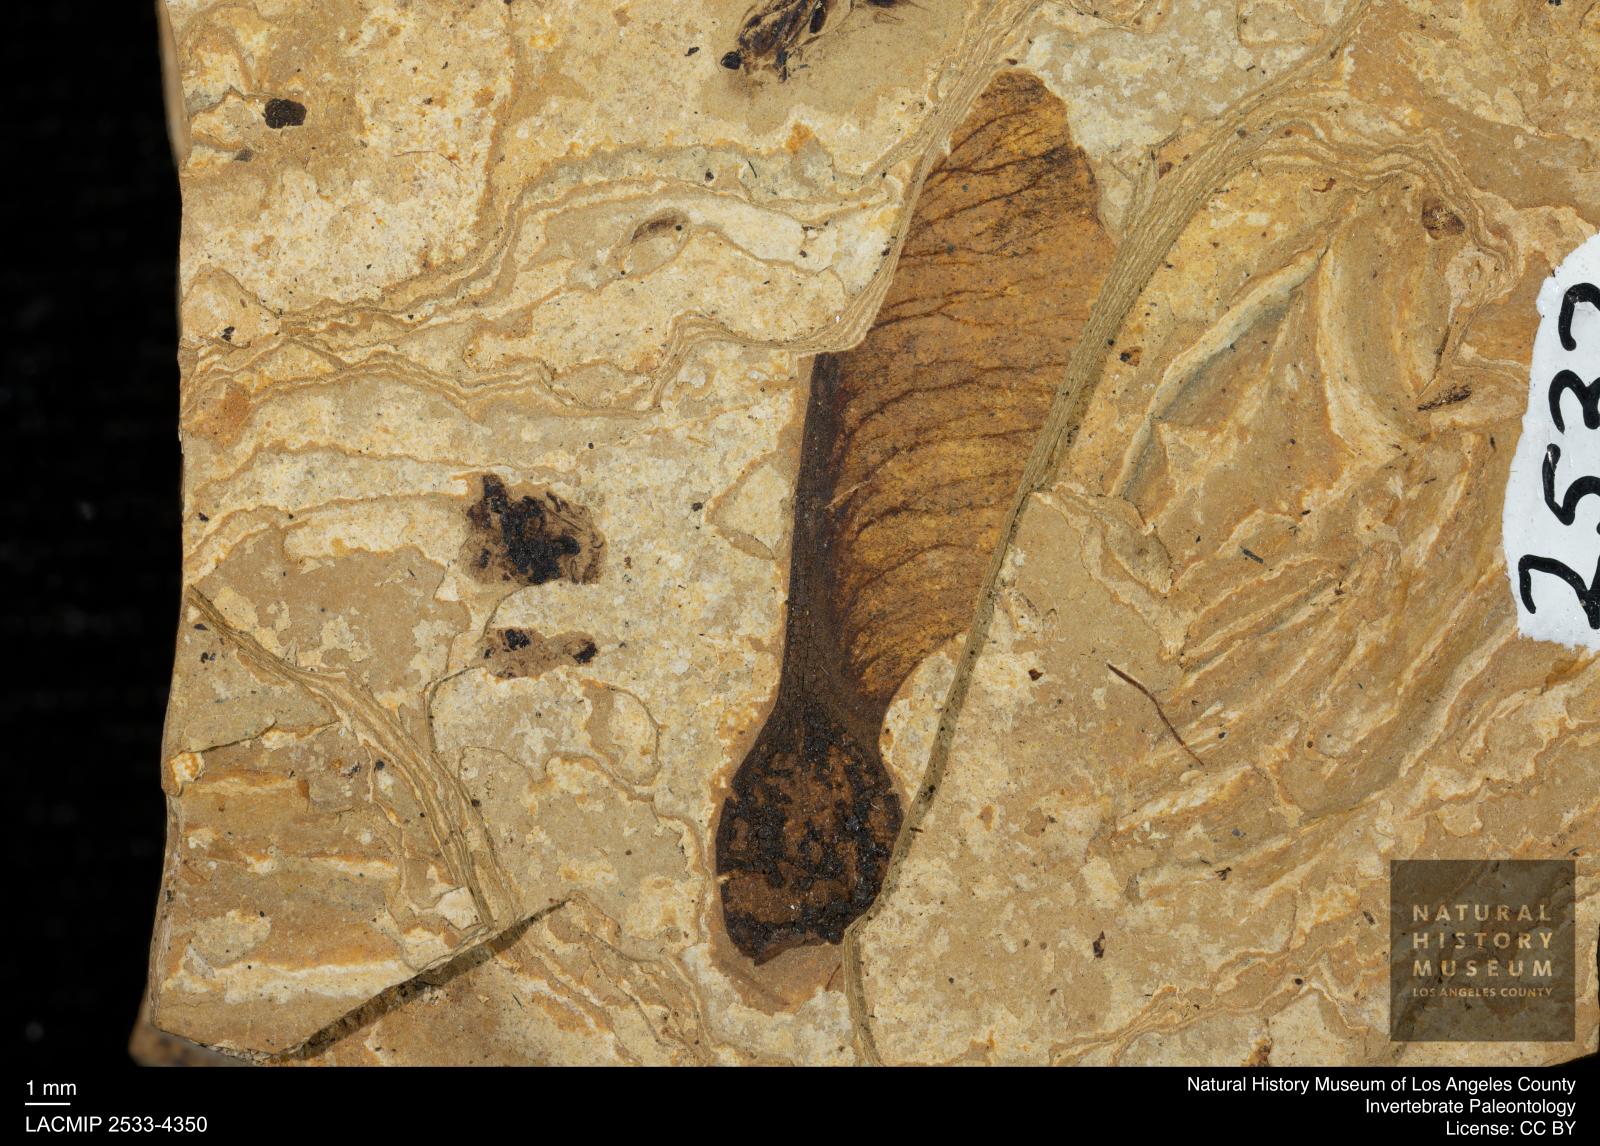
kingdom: Plantae
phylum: Tracheophyta
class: Magnoliopsida
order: Sapindales
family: Sapindaceae
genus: Acer
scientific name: Acer
